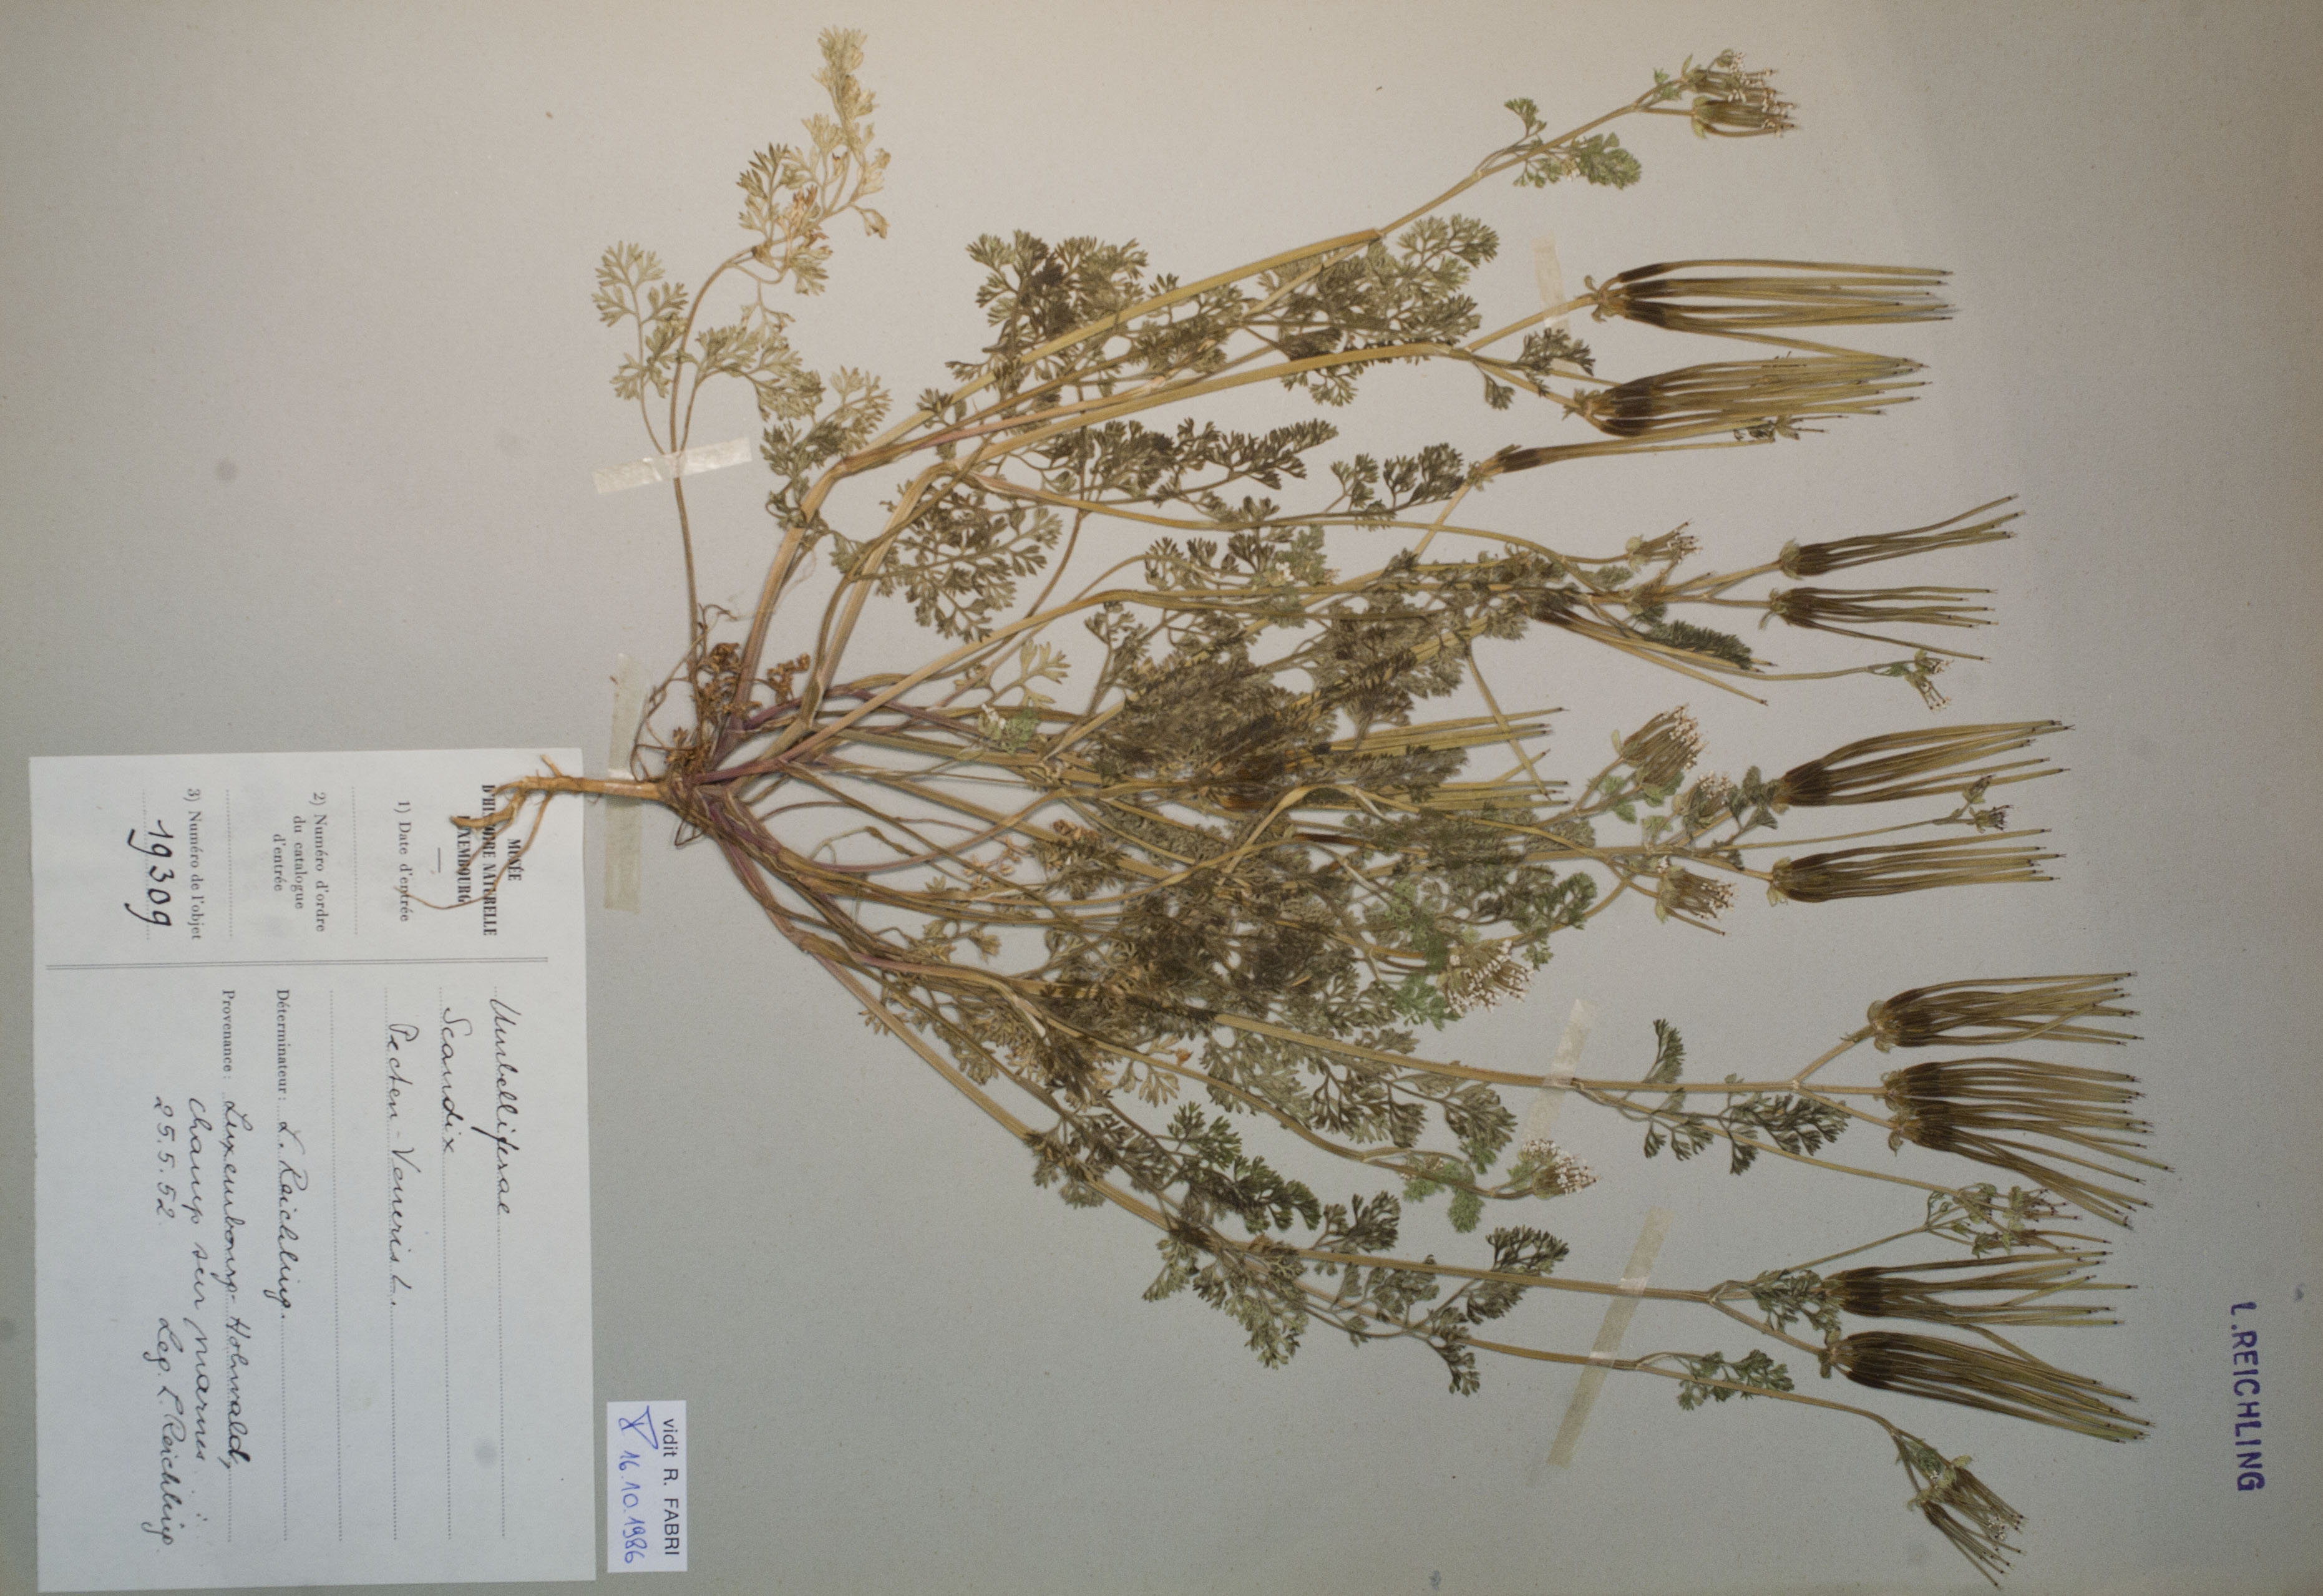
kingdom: Plantae
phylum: Tracheophyta
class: Magnoliopsida
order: Apiales
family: Apiaceae
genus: Scandix
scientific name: Scandix pecten-veneris
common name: Shepherd's-needle
